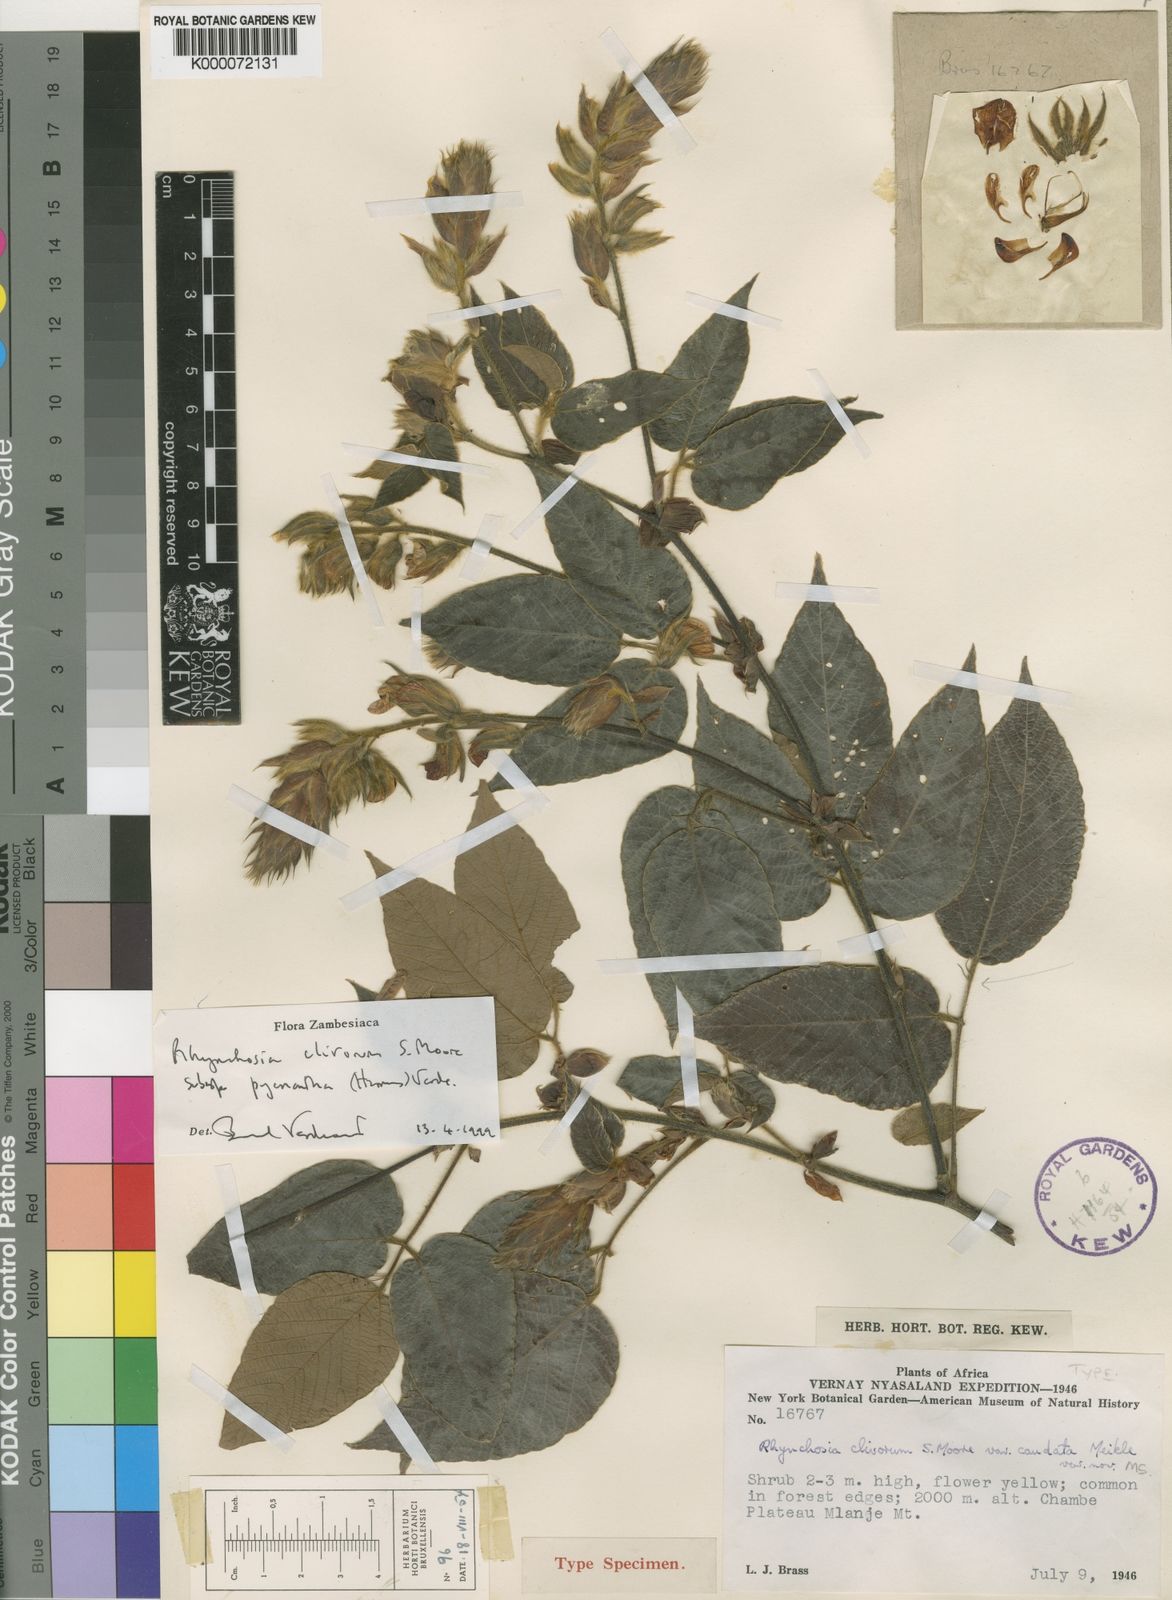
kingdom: Plantae
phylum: Tracheophyta
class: Magnoliopsida
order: Fabales
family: Fabaceae
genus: Rhynchosia
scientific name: Rhynchosia clivorum
